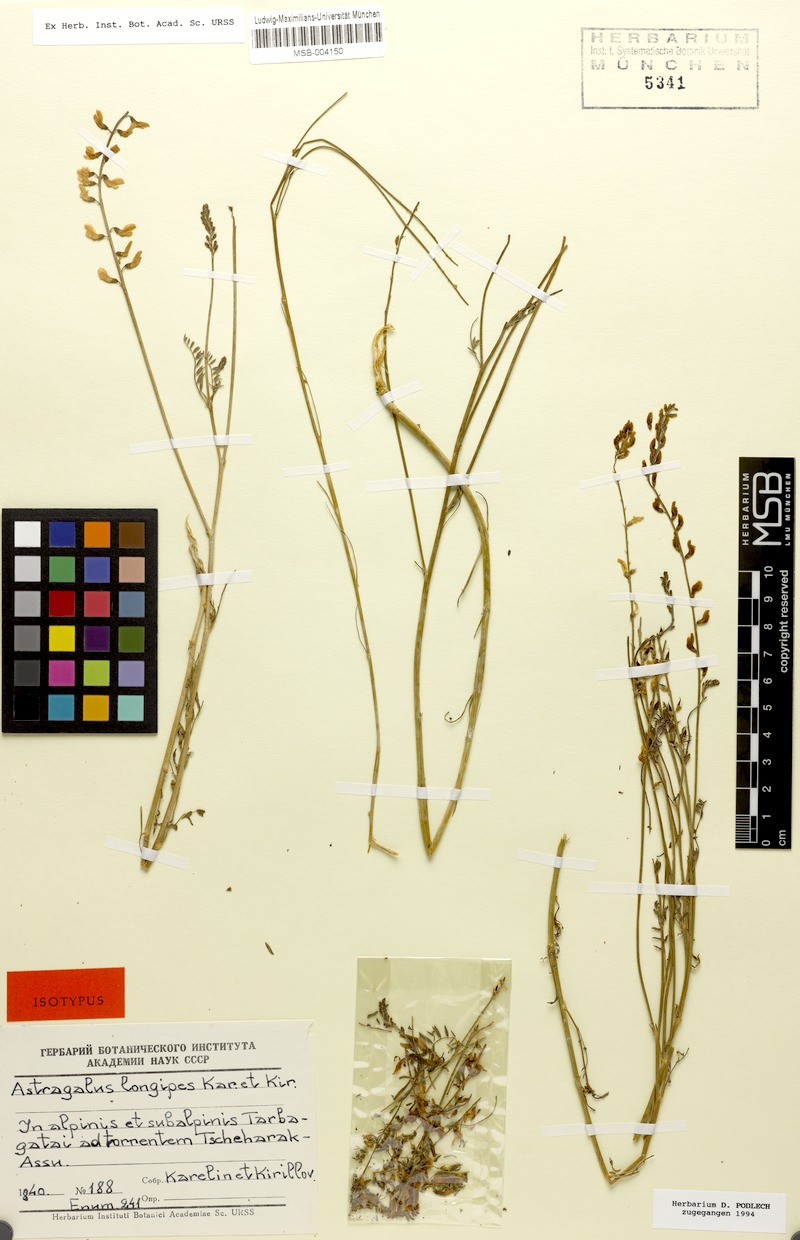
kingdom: Plantae
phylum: Tracheophyta
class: Magnoliopsida
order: Fabales
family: Fabaceae
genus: Astragalus
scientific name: Astragalus leptostachys
